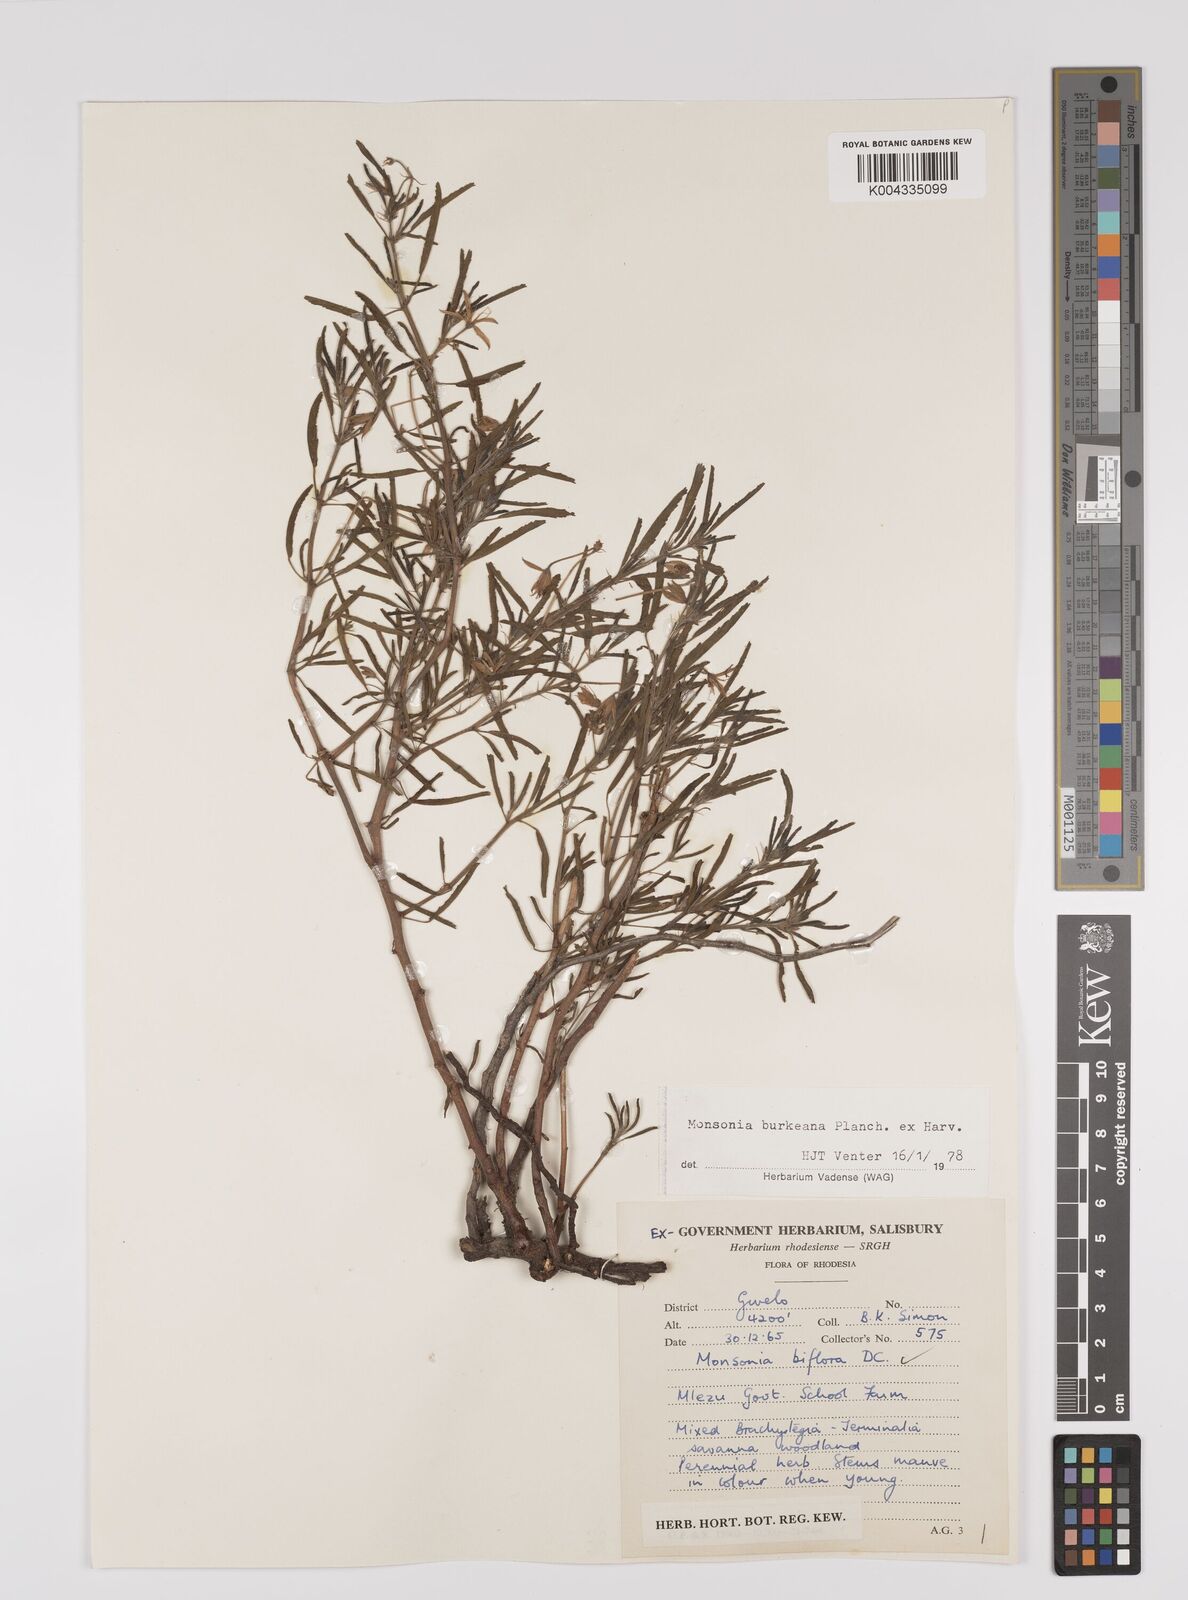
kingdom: Plantae
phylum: Tracheophyta
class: Magnoliopsida
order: Geraniales
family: Geraniaceae
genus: Monsonia
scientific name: Monsonia biflora
